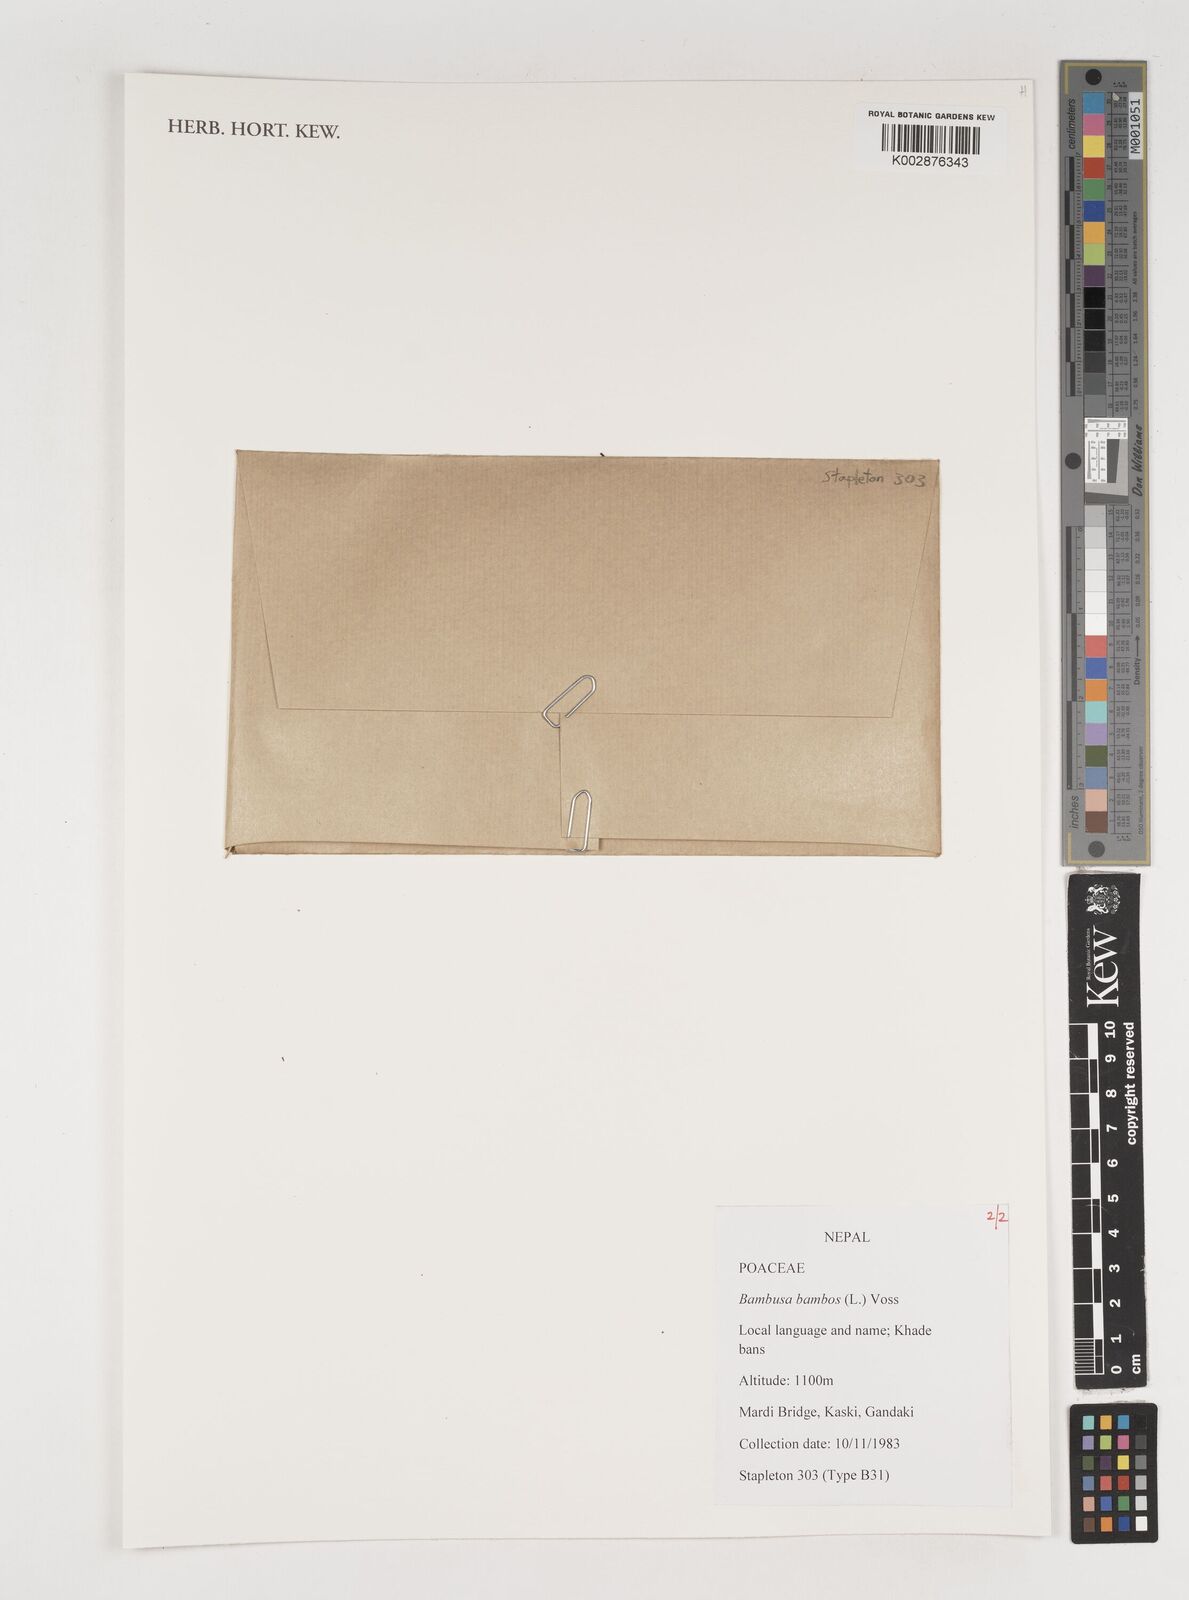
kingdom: Plantae
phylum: Tracheophyta
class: Liliopsida
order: Poales
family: Poaceae
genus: Bambusa
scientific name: Bambusa bambos
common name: Indian thorny bamboo
